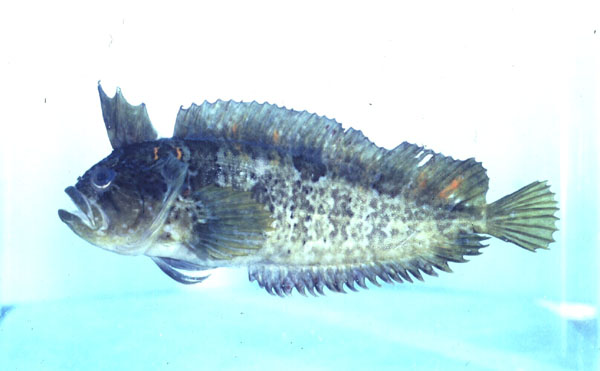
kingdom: Animalia
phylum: Chordata
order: Perciformes
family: Clinidae
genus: Clinus
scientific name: Clinus woodi
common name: Oldman klipfish
